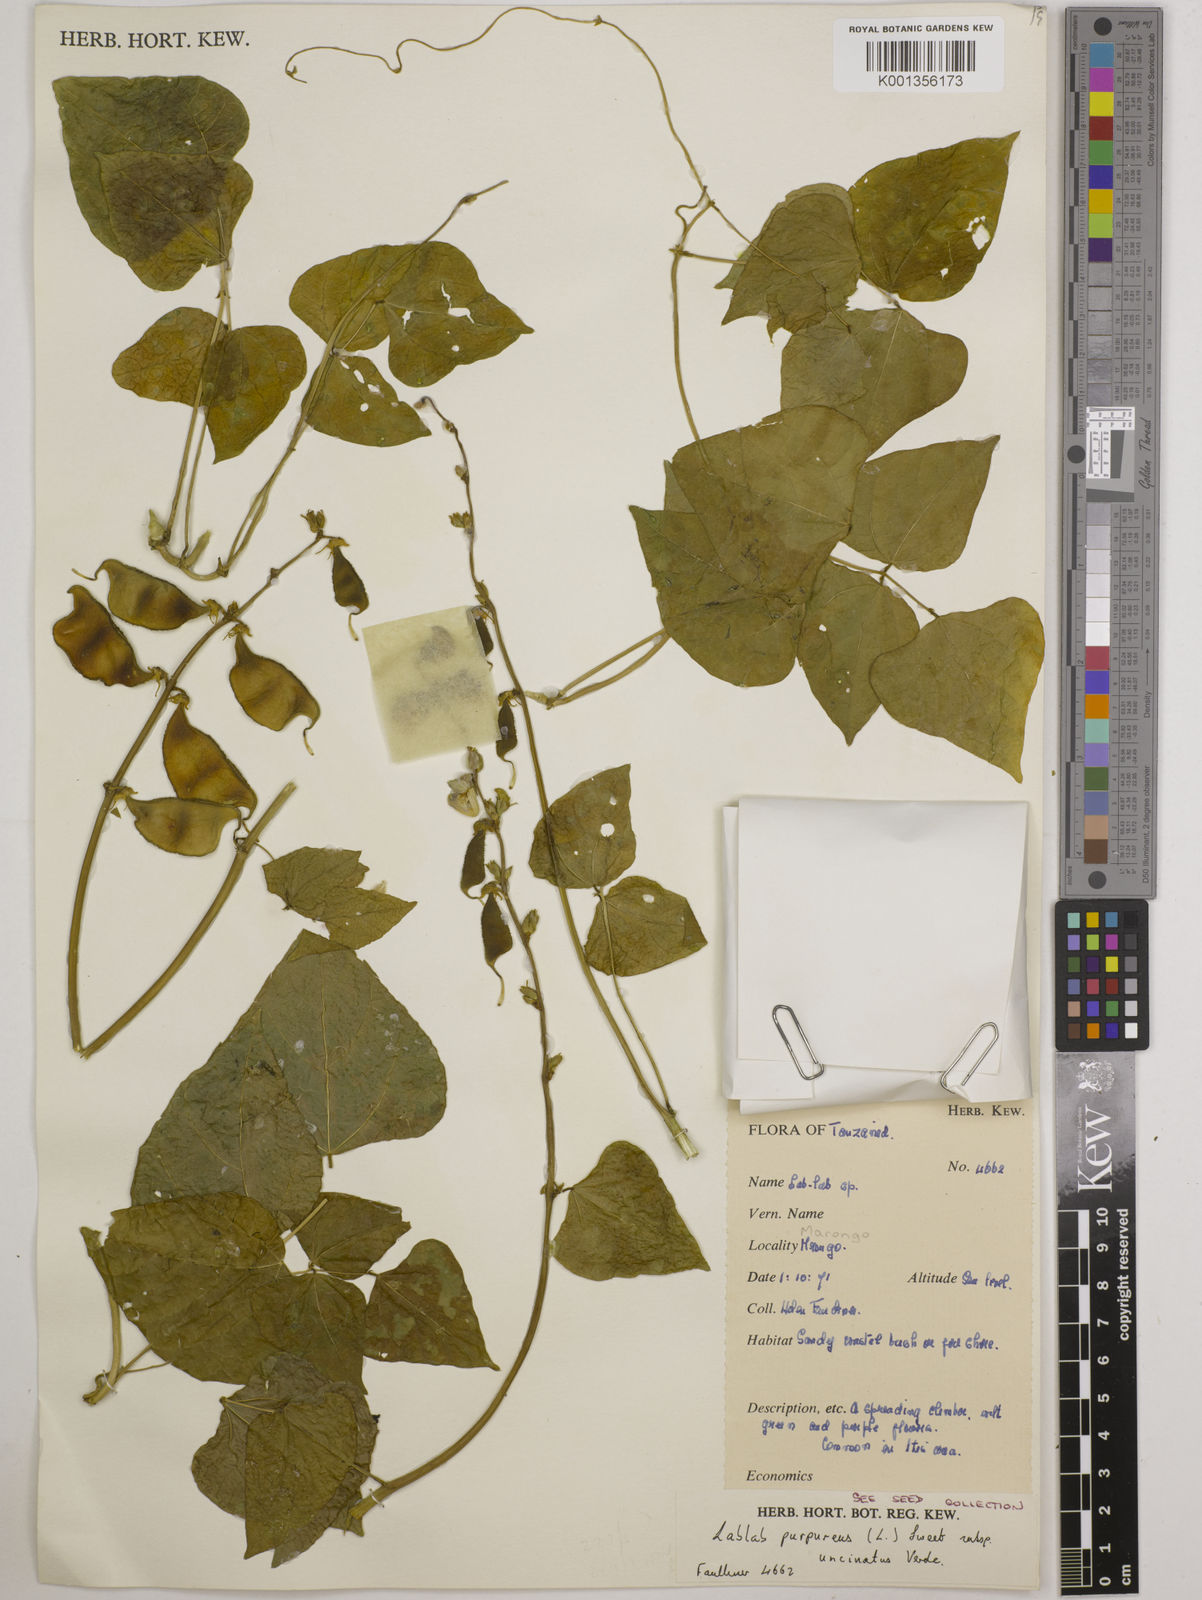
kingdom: Plantae
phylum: Tracheophyta
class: Magnoliopsida
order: Fabales
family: Fabaceae
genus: Lablab
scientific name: Lablab purpureus
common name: Lablab-bean
